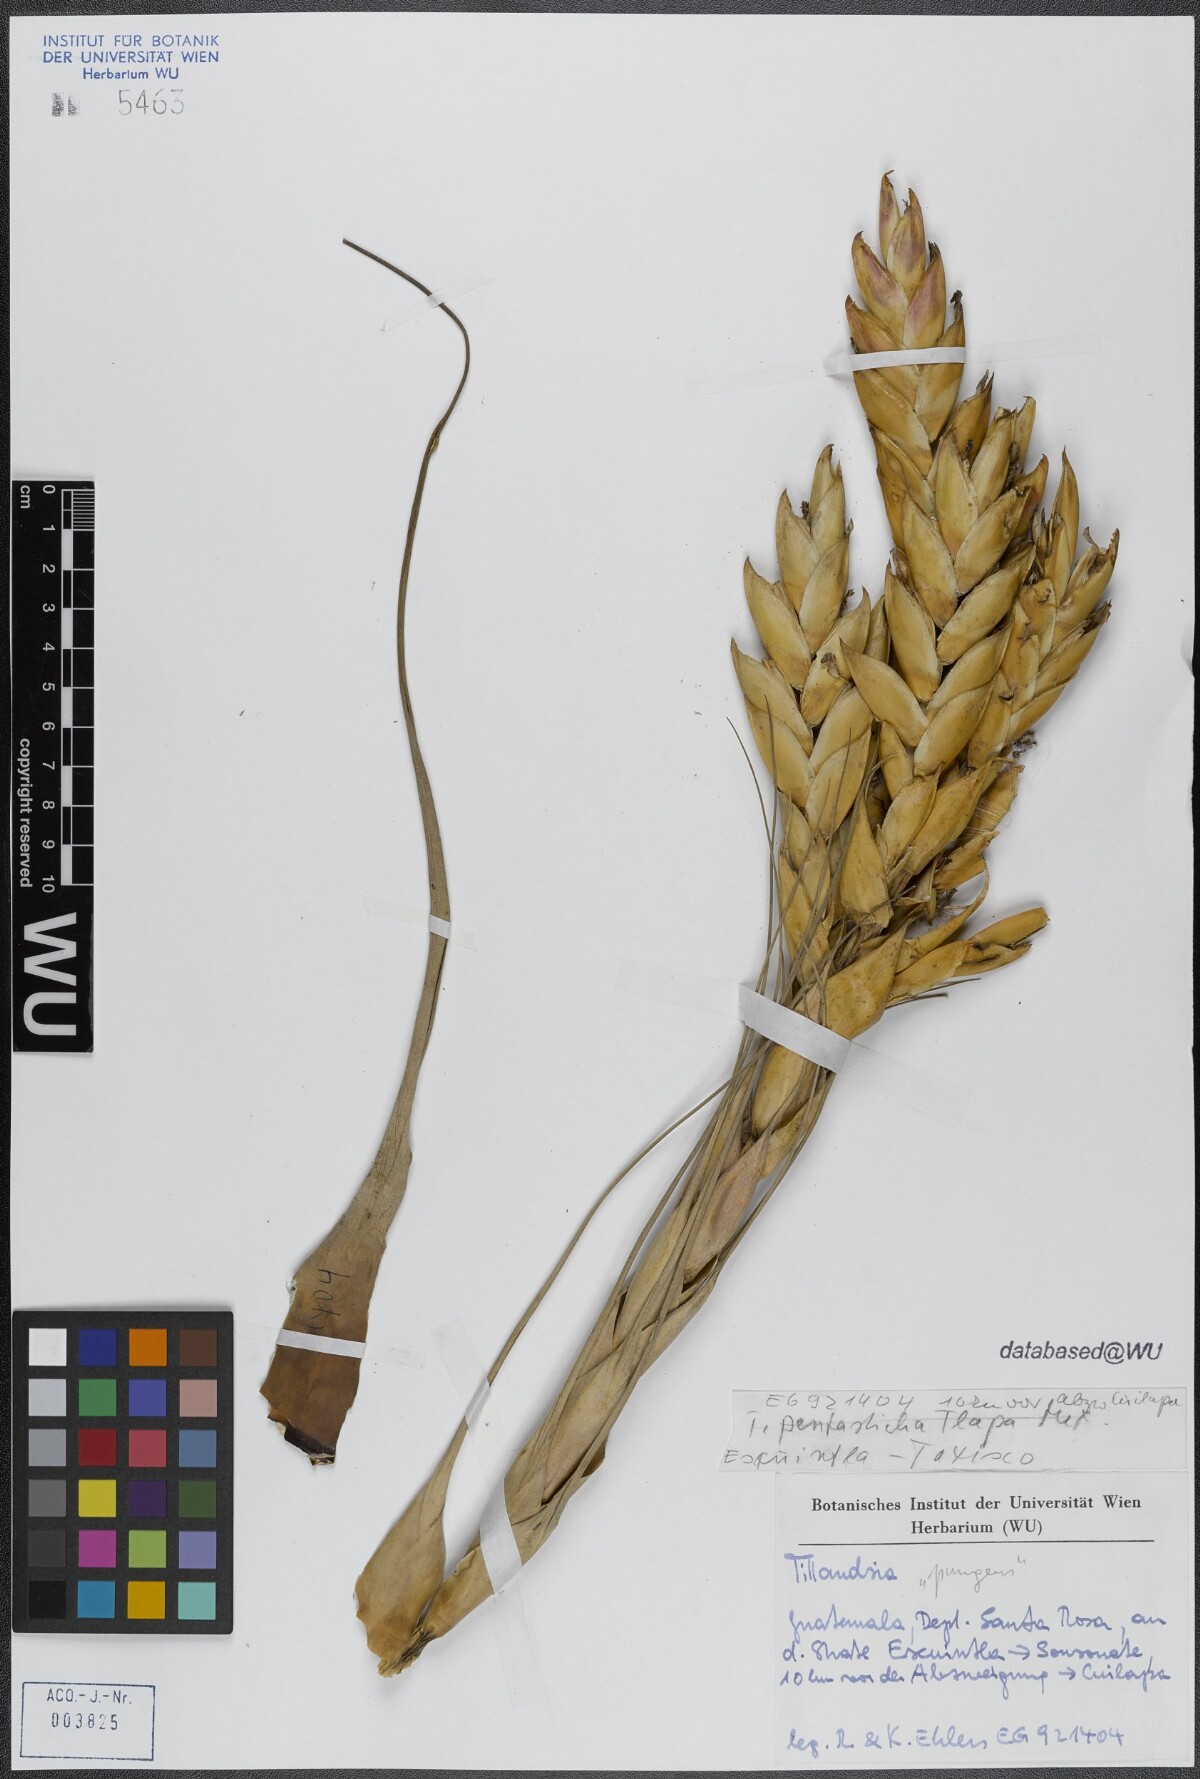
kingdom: Plantae
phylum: Tracheophyta
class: Liliopsida
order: Poales
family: Bromeliaceae
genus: Tillandsia
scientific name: Tillandsia fasciculata
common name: Giant airplant
